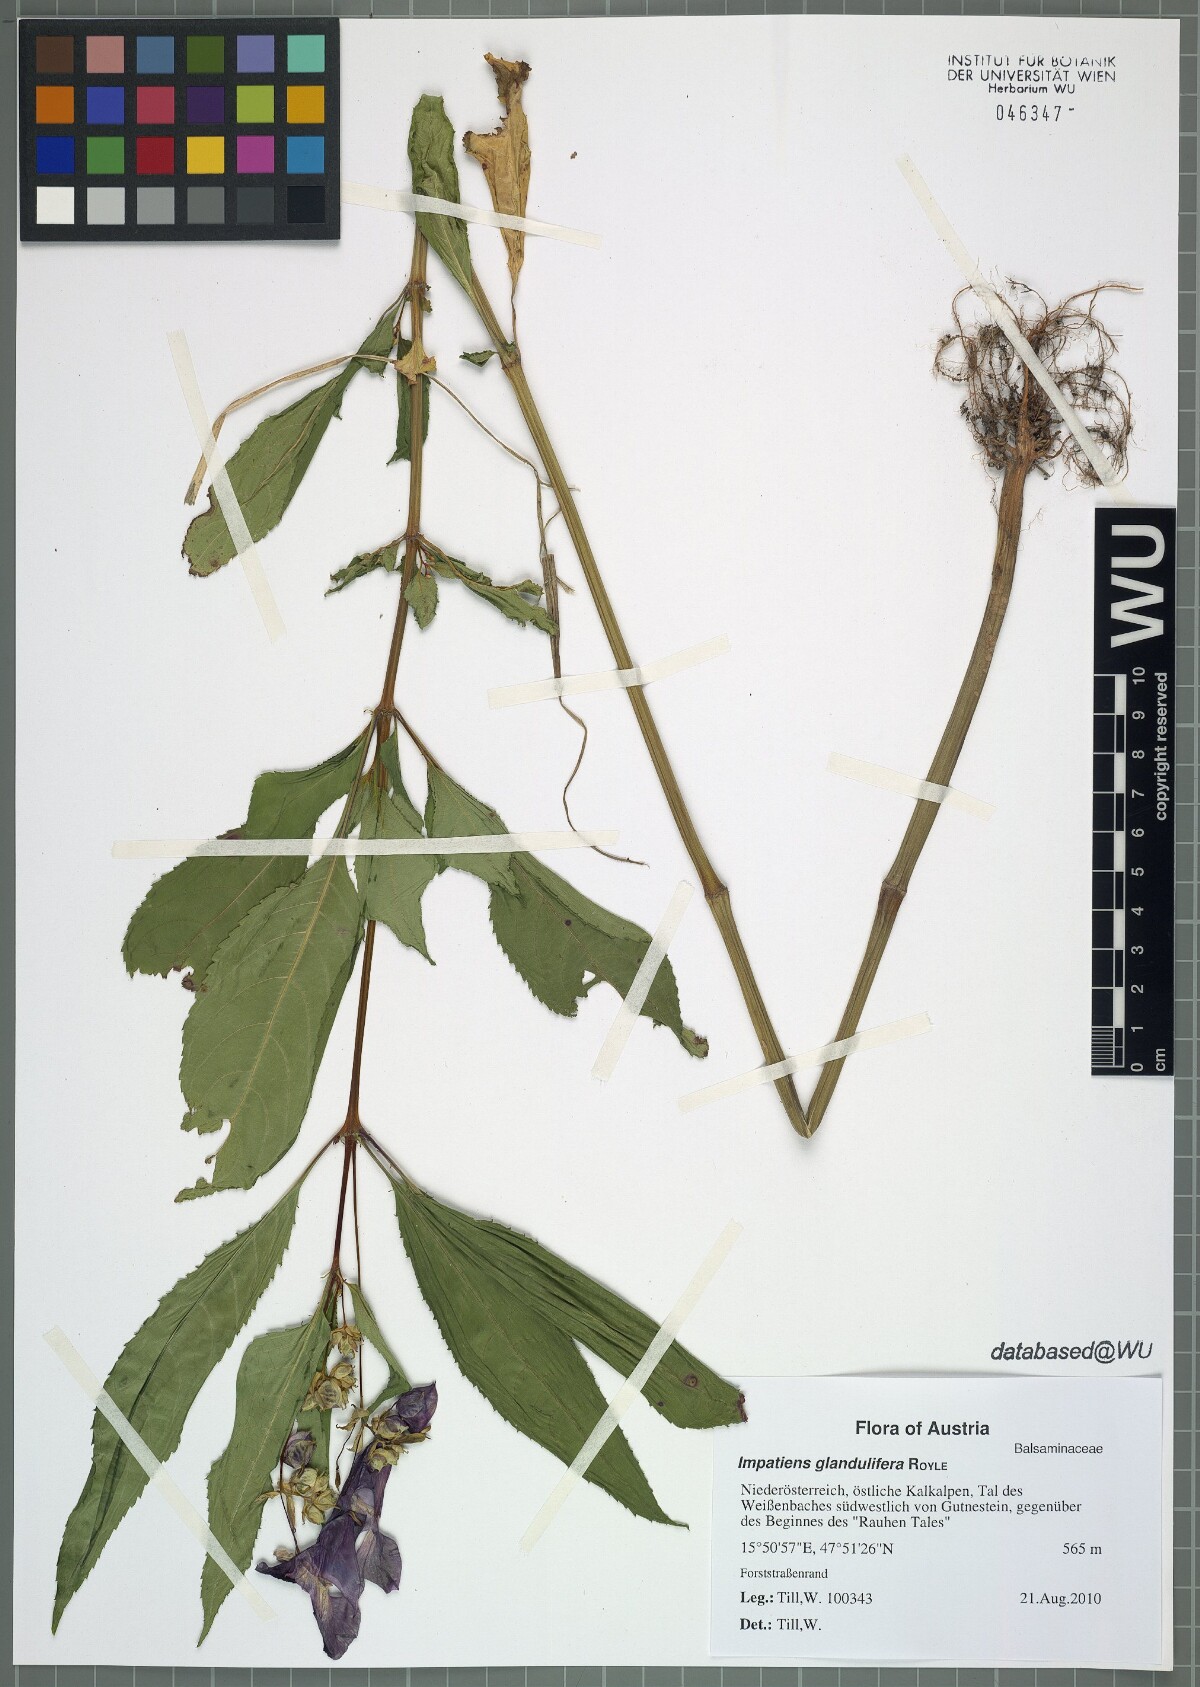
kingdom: Plantae
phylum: Tracheophyta
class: Magnoliopsida
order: Ericales
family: Balsaminaceae
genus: Impatiens
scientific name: Impatiens glandulifera
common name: Himalayan balsam
